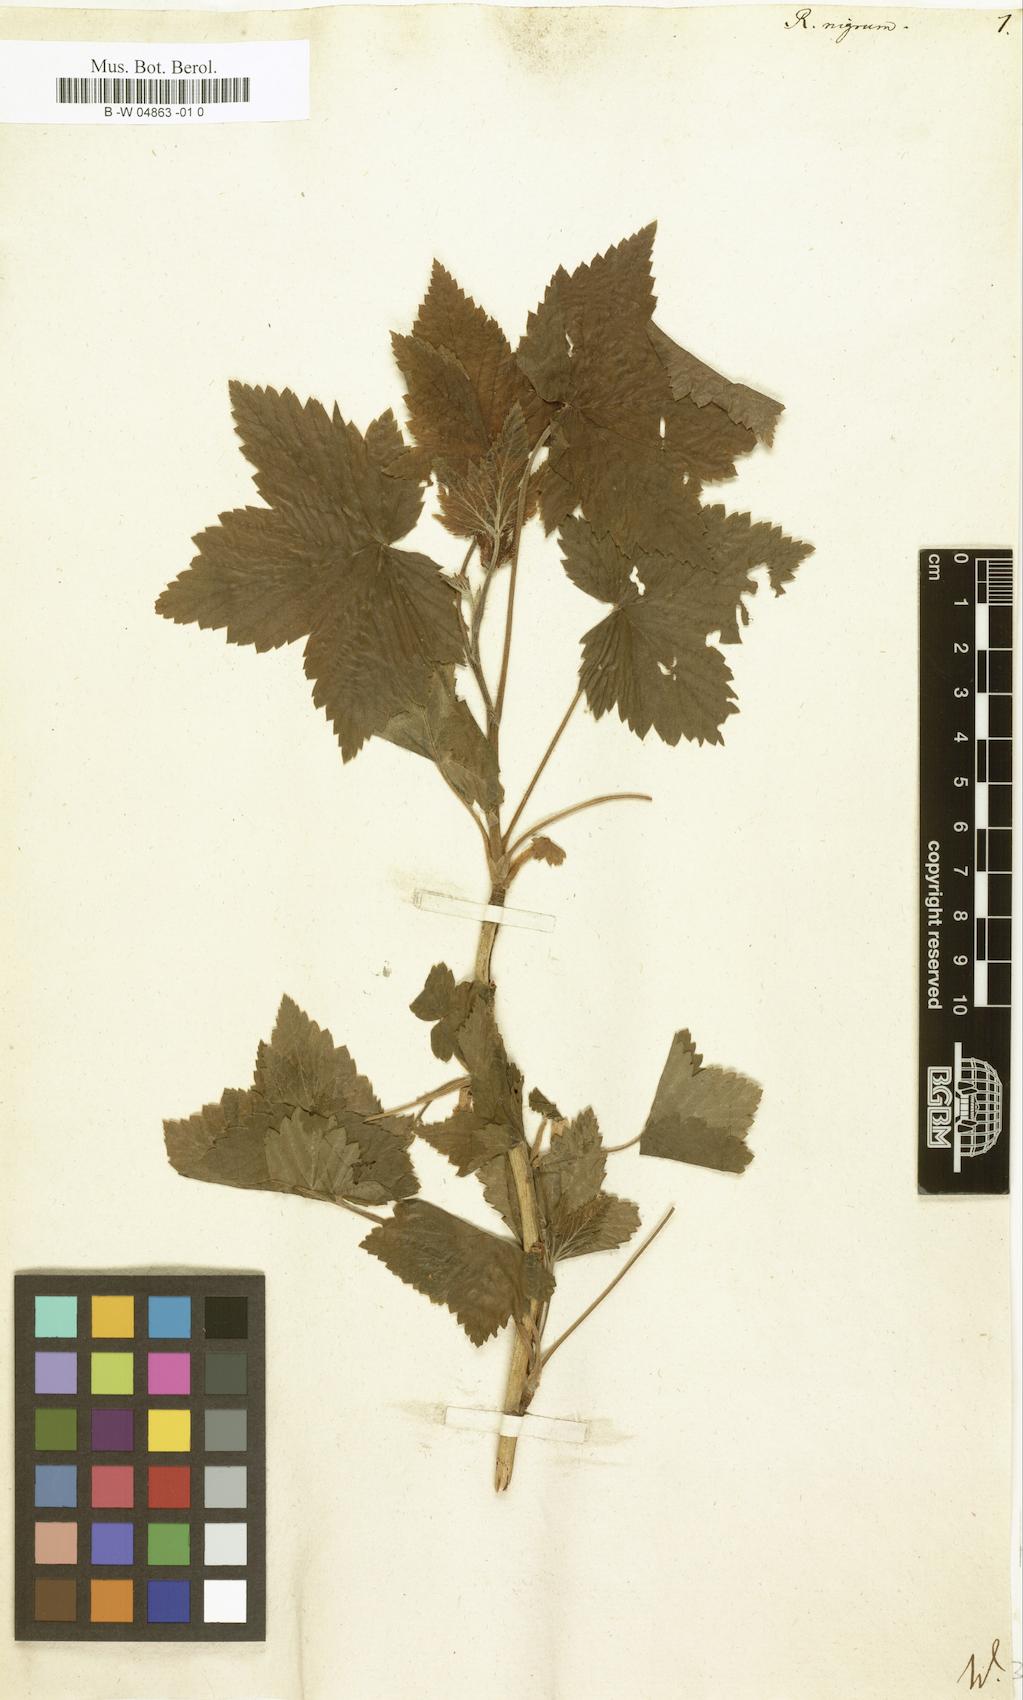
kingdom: Plantae
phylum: Tracheophyta
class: Magnoliopsida
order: Saxifragales
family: Grossulariaceae
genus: Ribes
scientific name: Ribes nigrum
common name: Black currant
